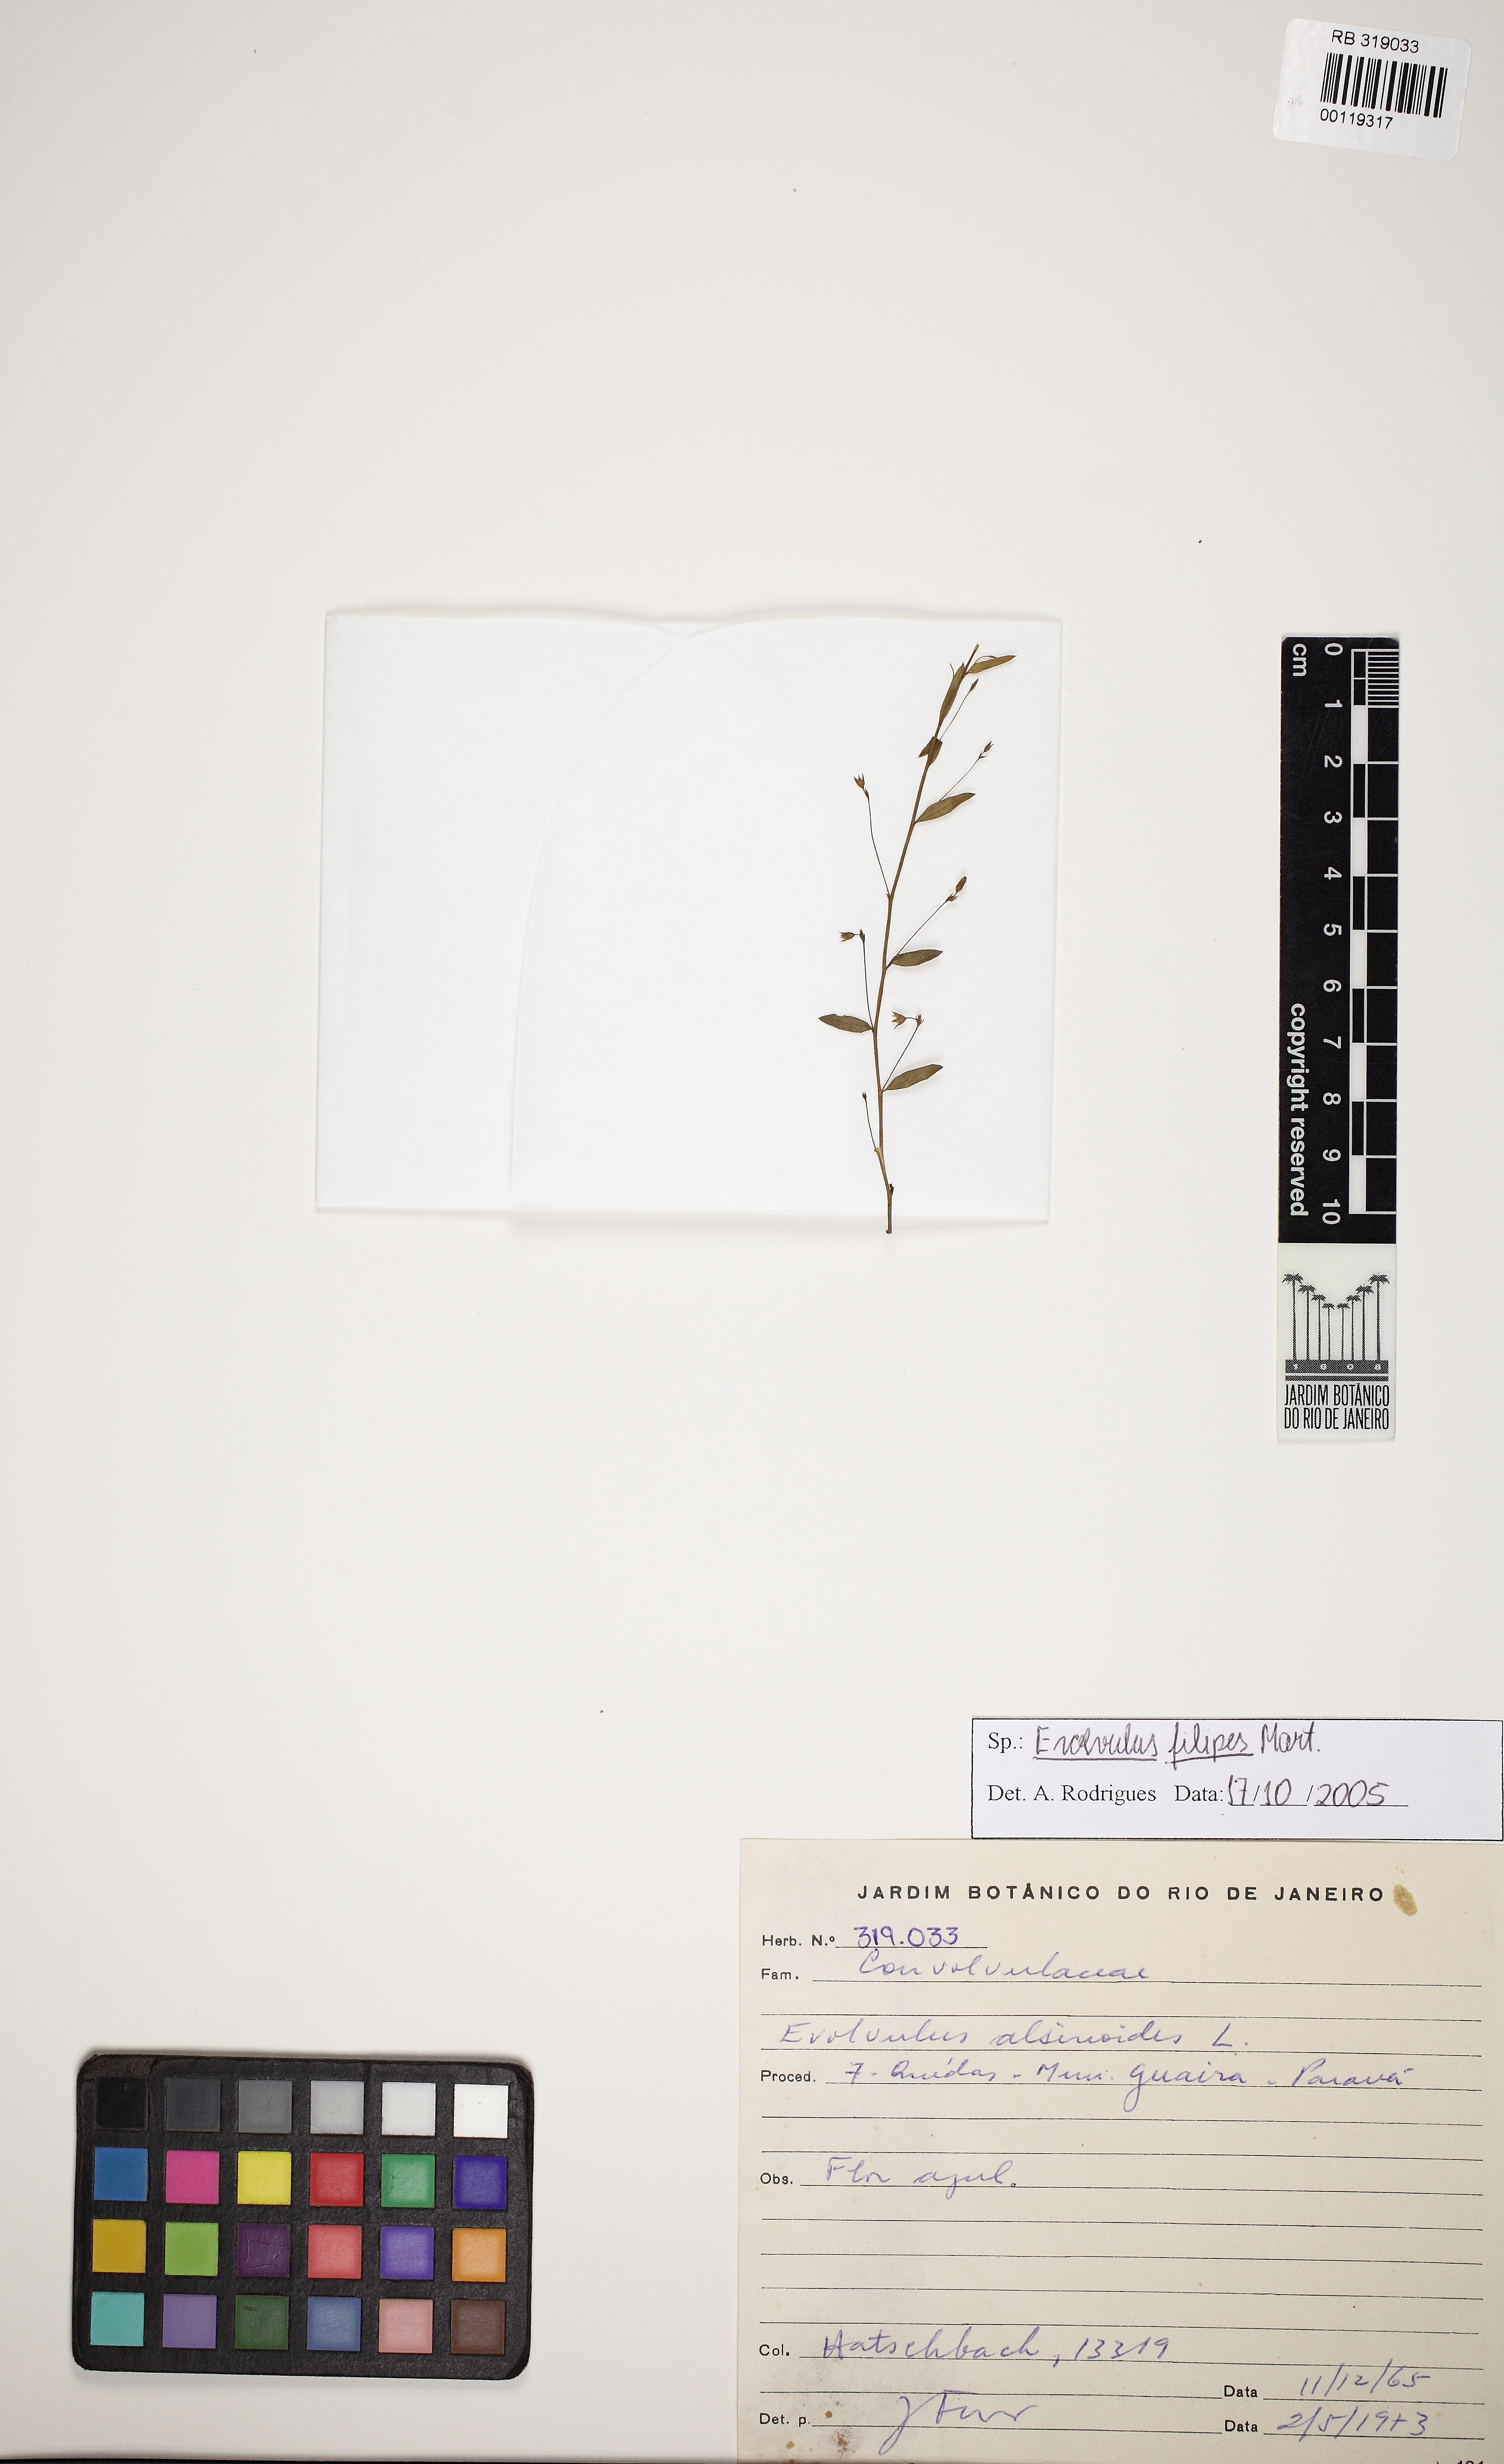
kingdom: Plantae
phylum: Tracheophyta
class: Magnoliopsida
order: Solanales
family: Convolvulaceae
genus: Evolvulus
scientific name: Evolvulus filipes
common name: Maryland dwarf morning-glory
